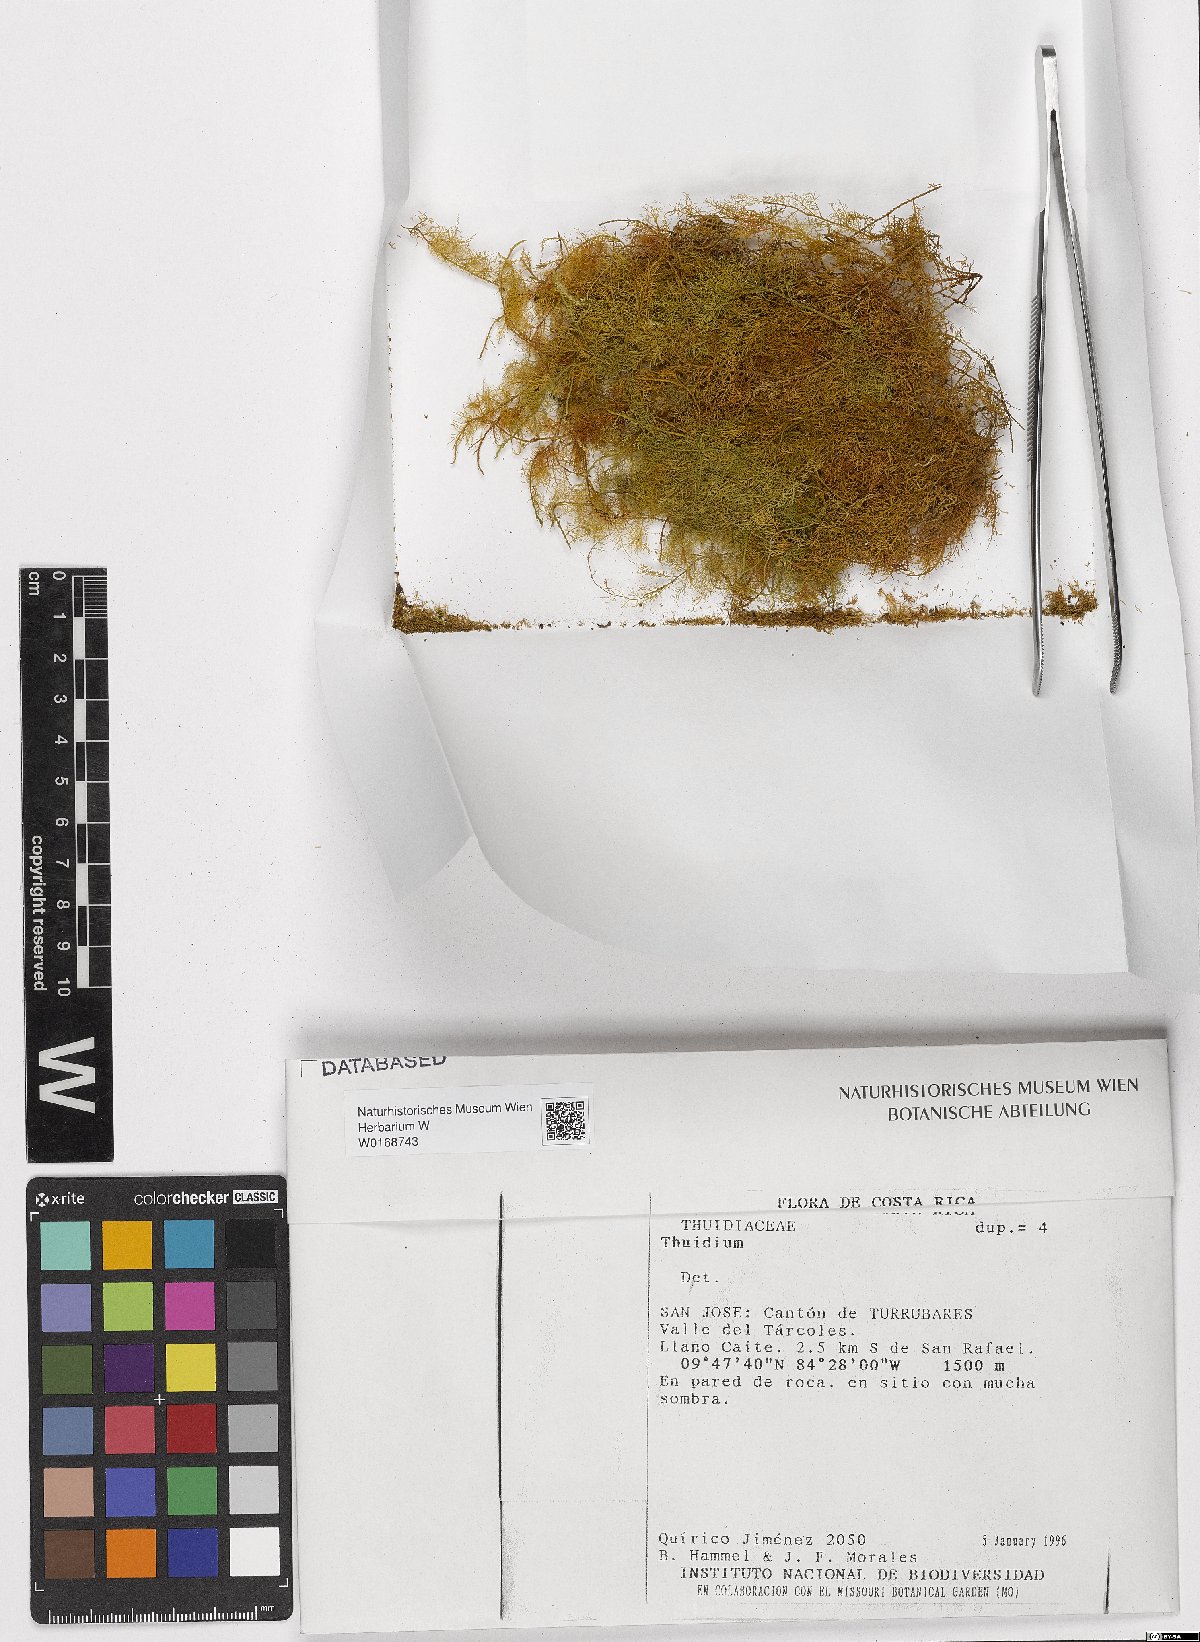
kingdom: Plantae
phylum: Bryophyta
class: Bryopsida
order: Hypnales
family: Thuidiaceae
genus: Thuidium
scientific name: Thuidium
